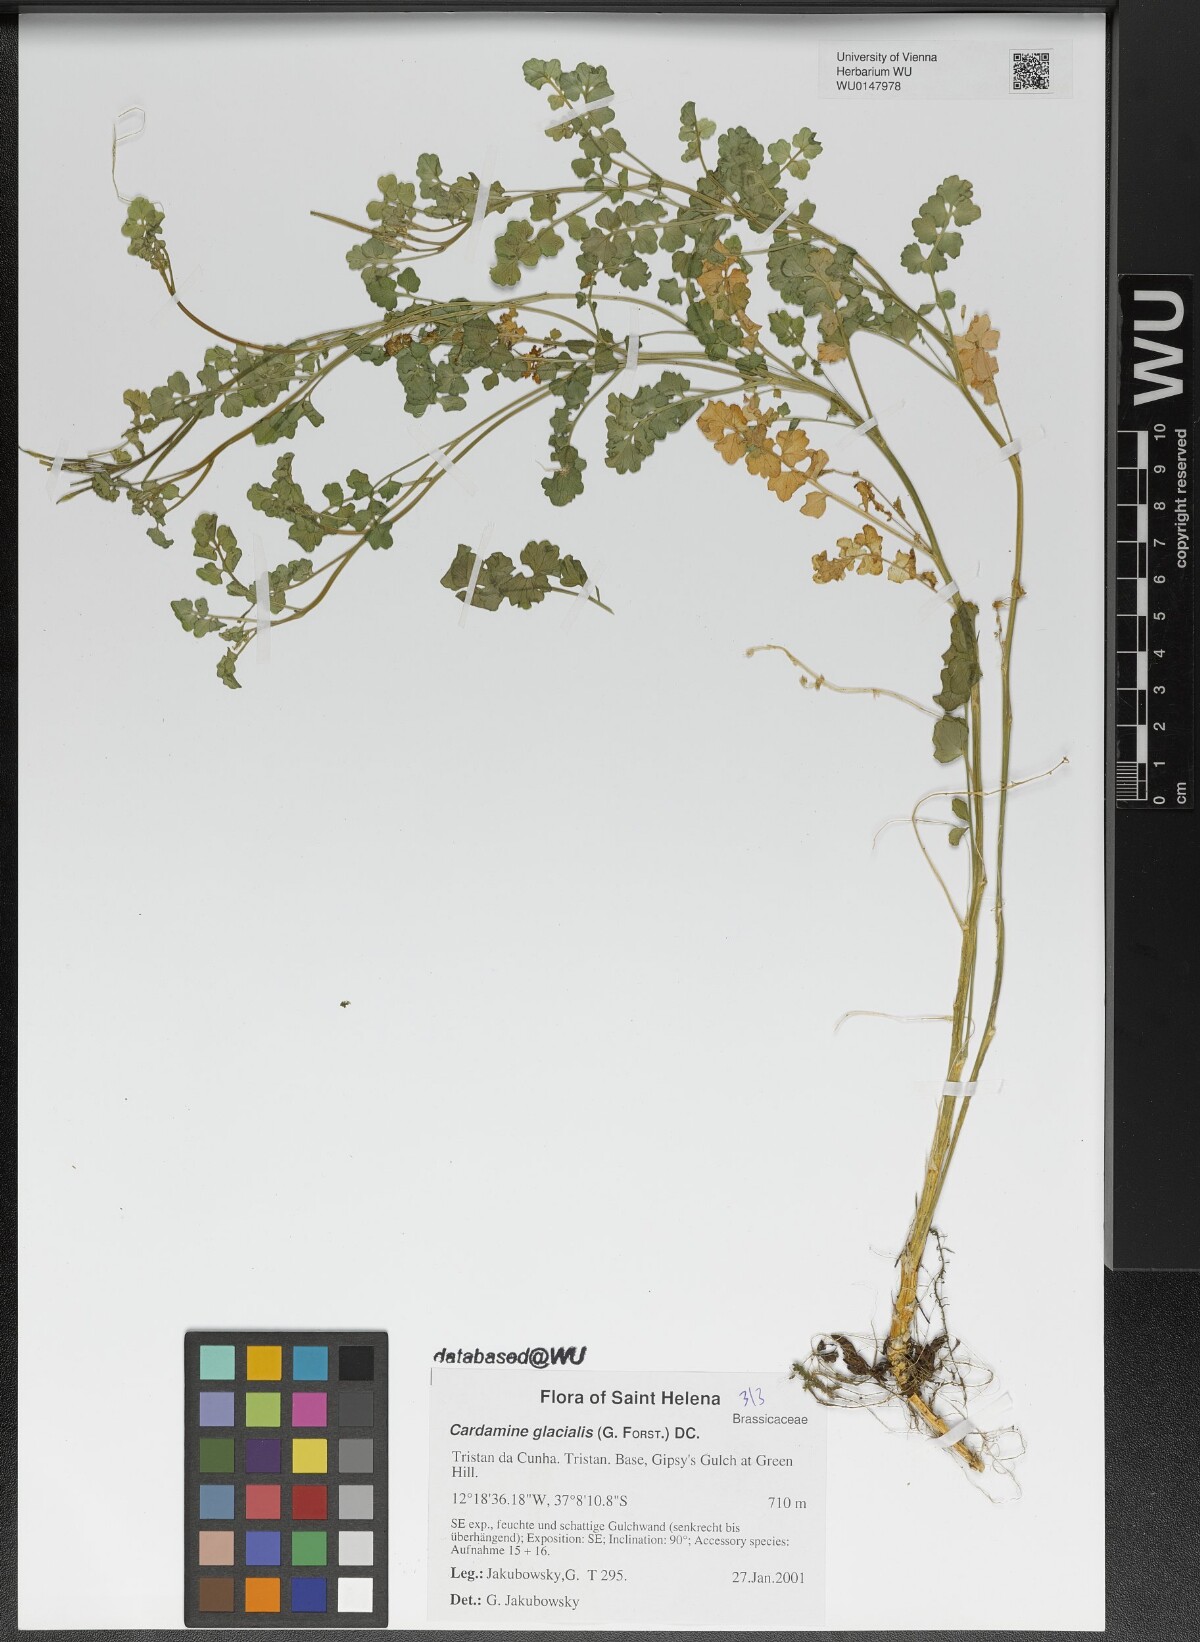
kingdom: Plantae
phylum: Tracheophyta
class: Magnoliopsida
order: Brassicales
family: Brassicaceae
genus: Cardamine
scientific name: Cardamine glacialis
